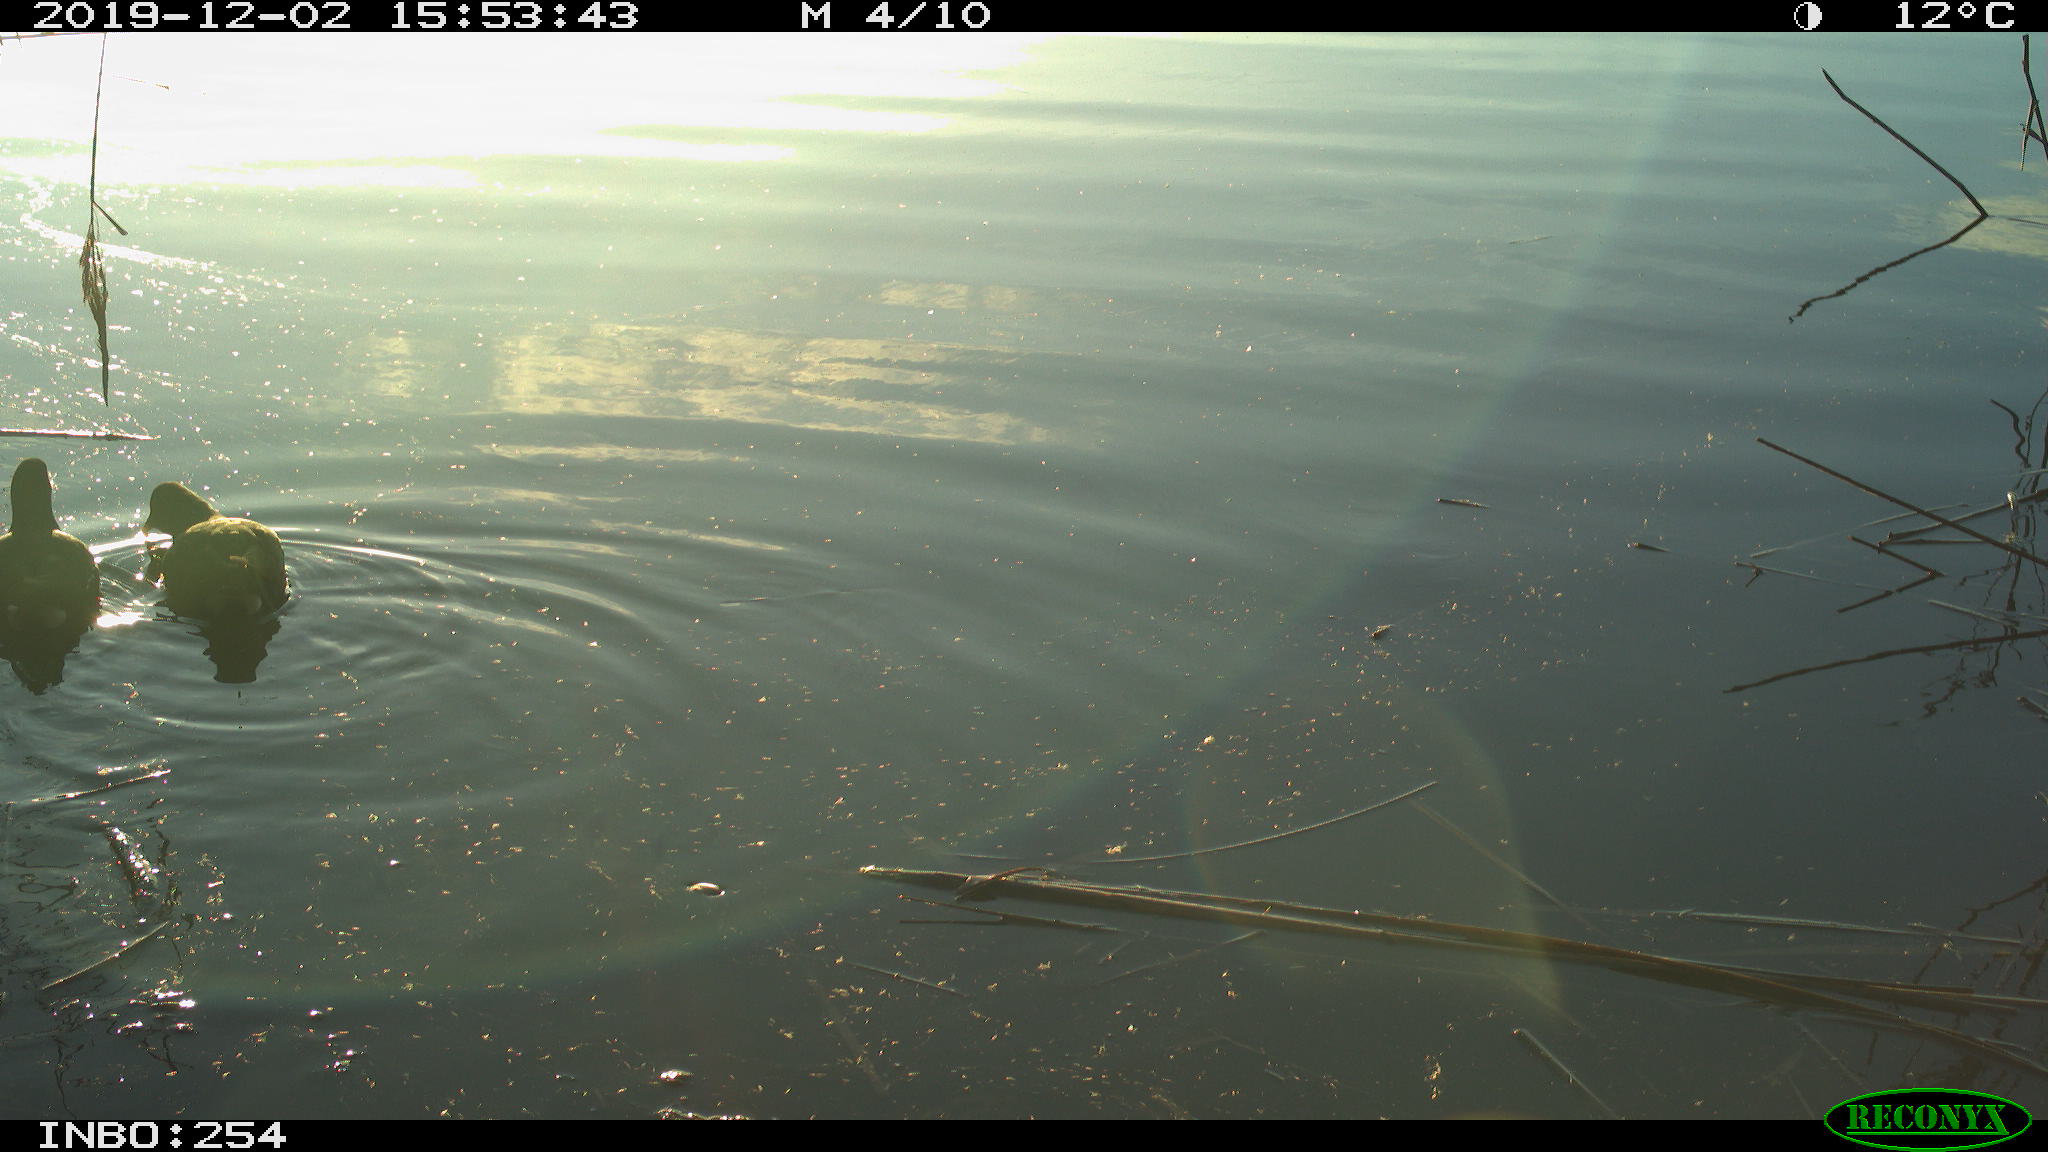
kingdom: Animalia
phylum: Chordata
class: Aves
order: Gruiformes
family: Rallidae
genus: Gallinula
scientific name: Gallinula chloropus
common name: Common moorhen
